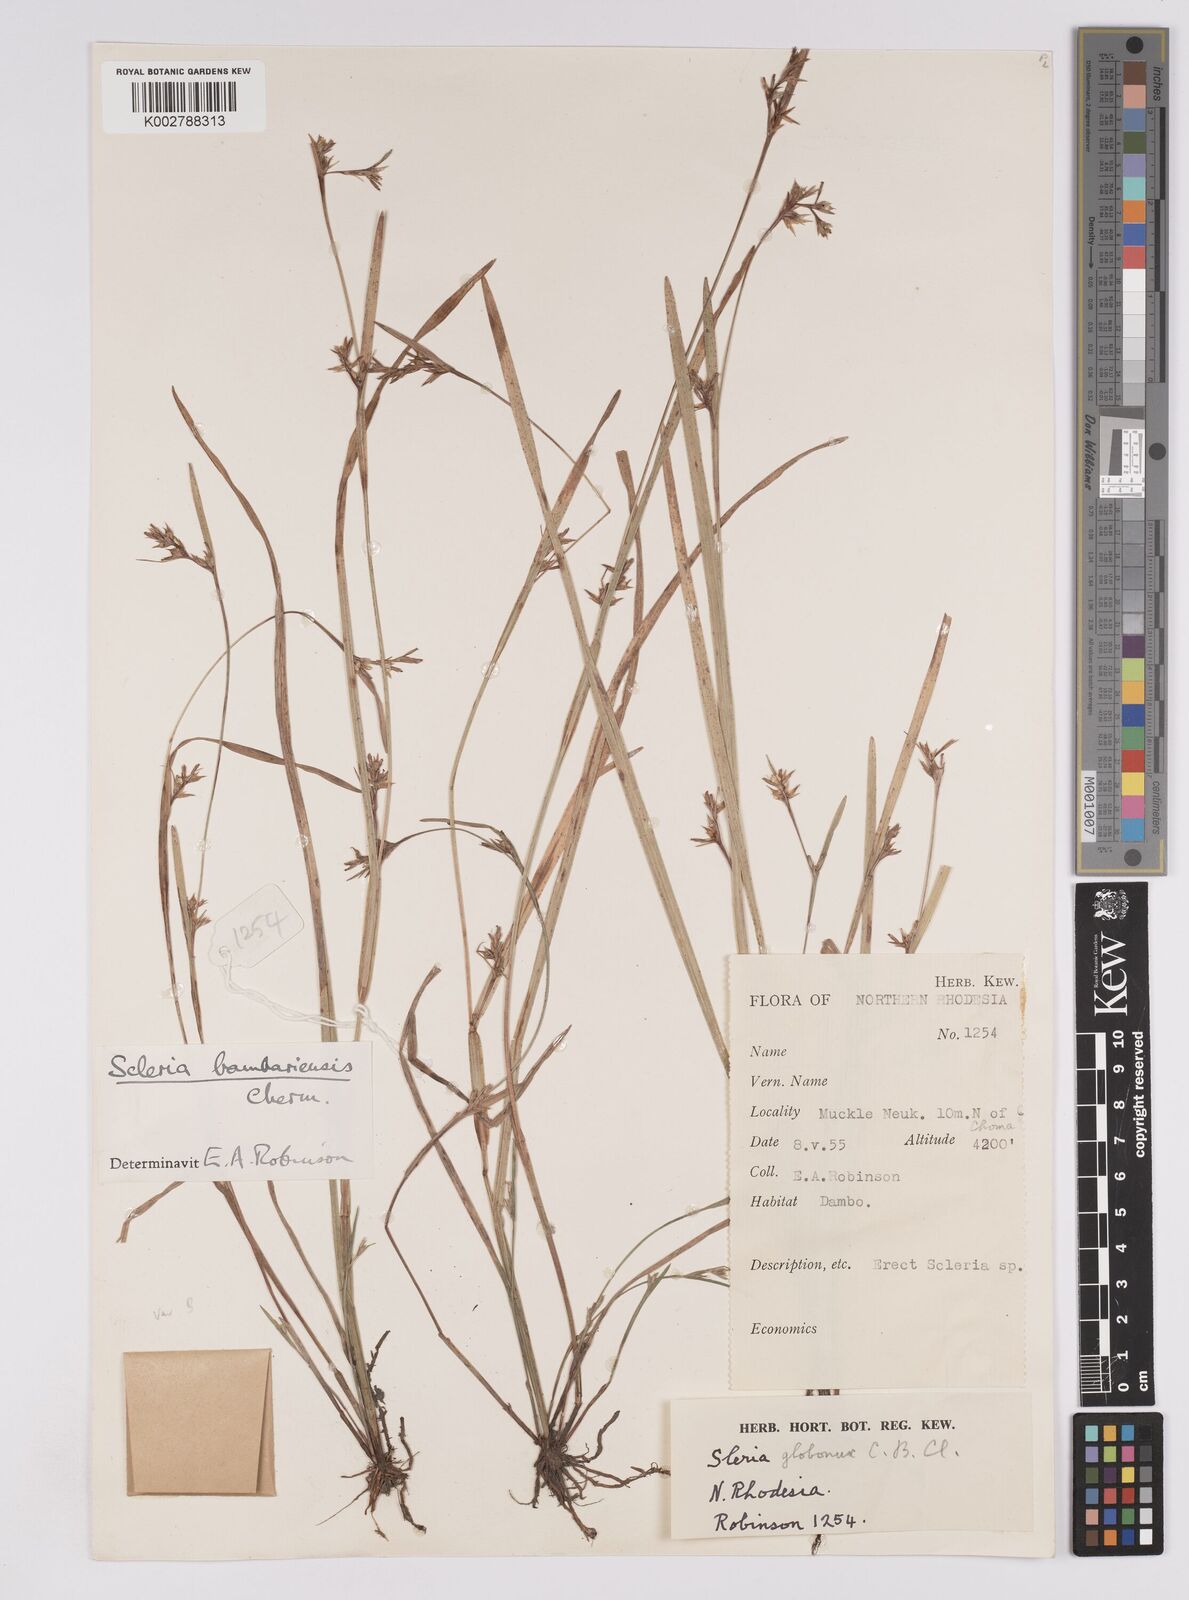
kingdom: Plantae
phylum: Tracheophyta
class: Liliopsida
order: Poales
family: Cyperaceae
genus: Scleria
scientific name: Scleria bambariensis
